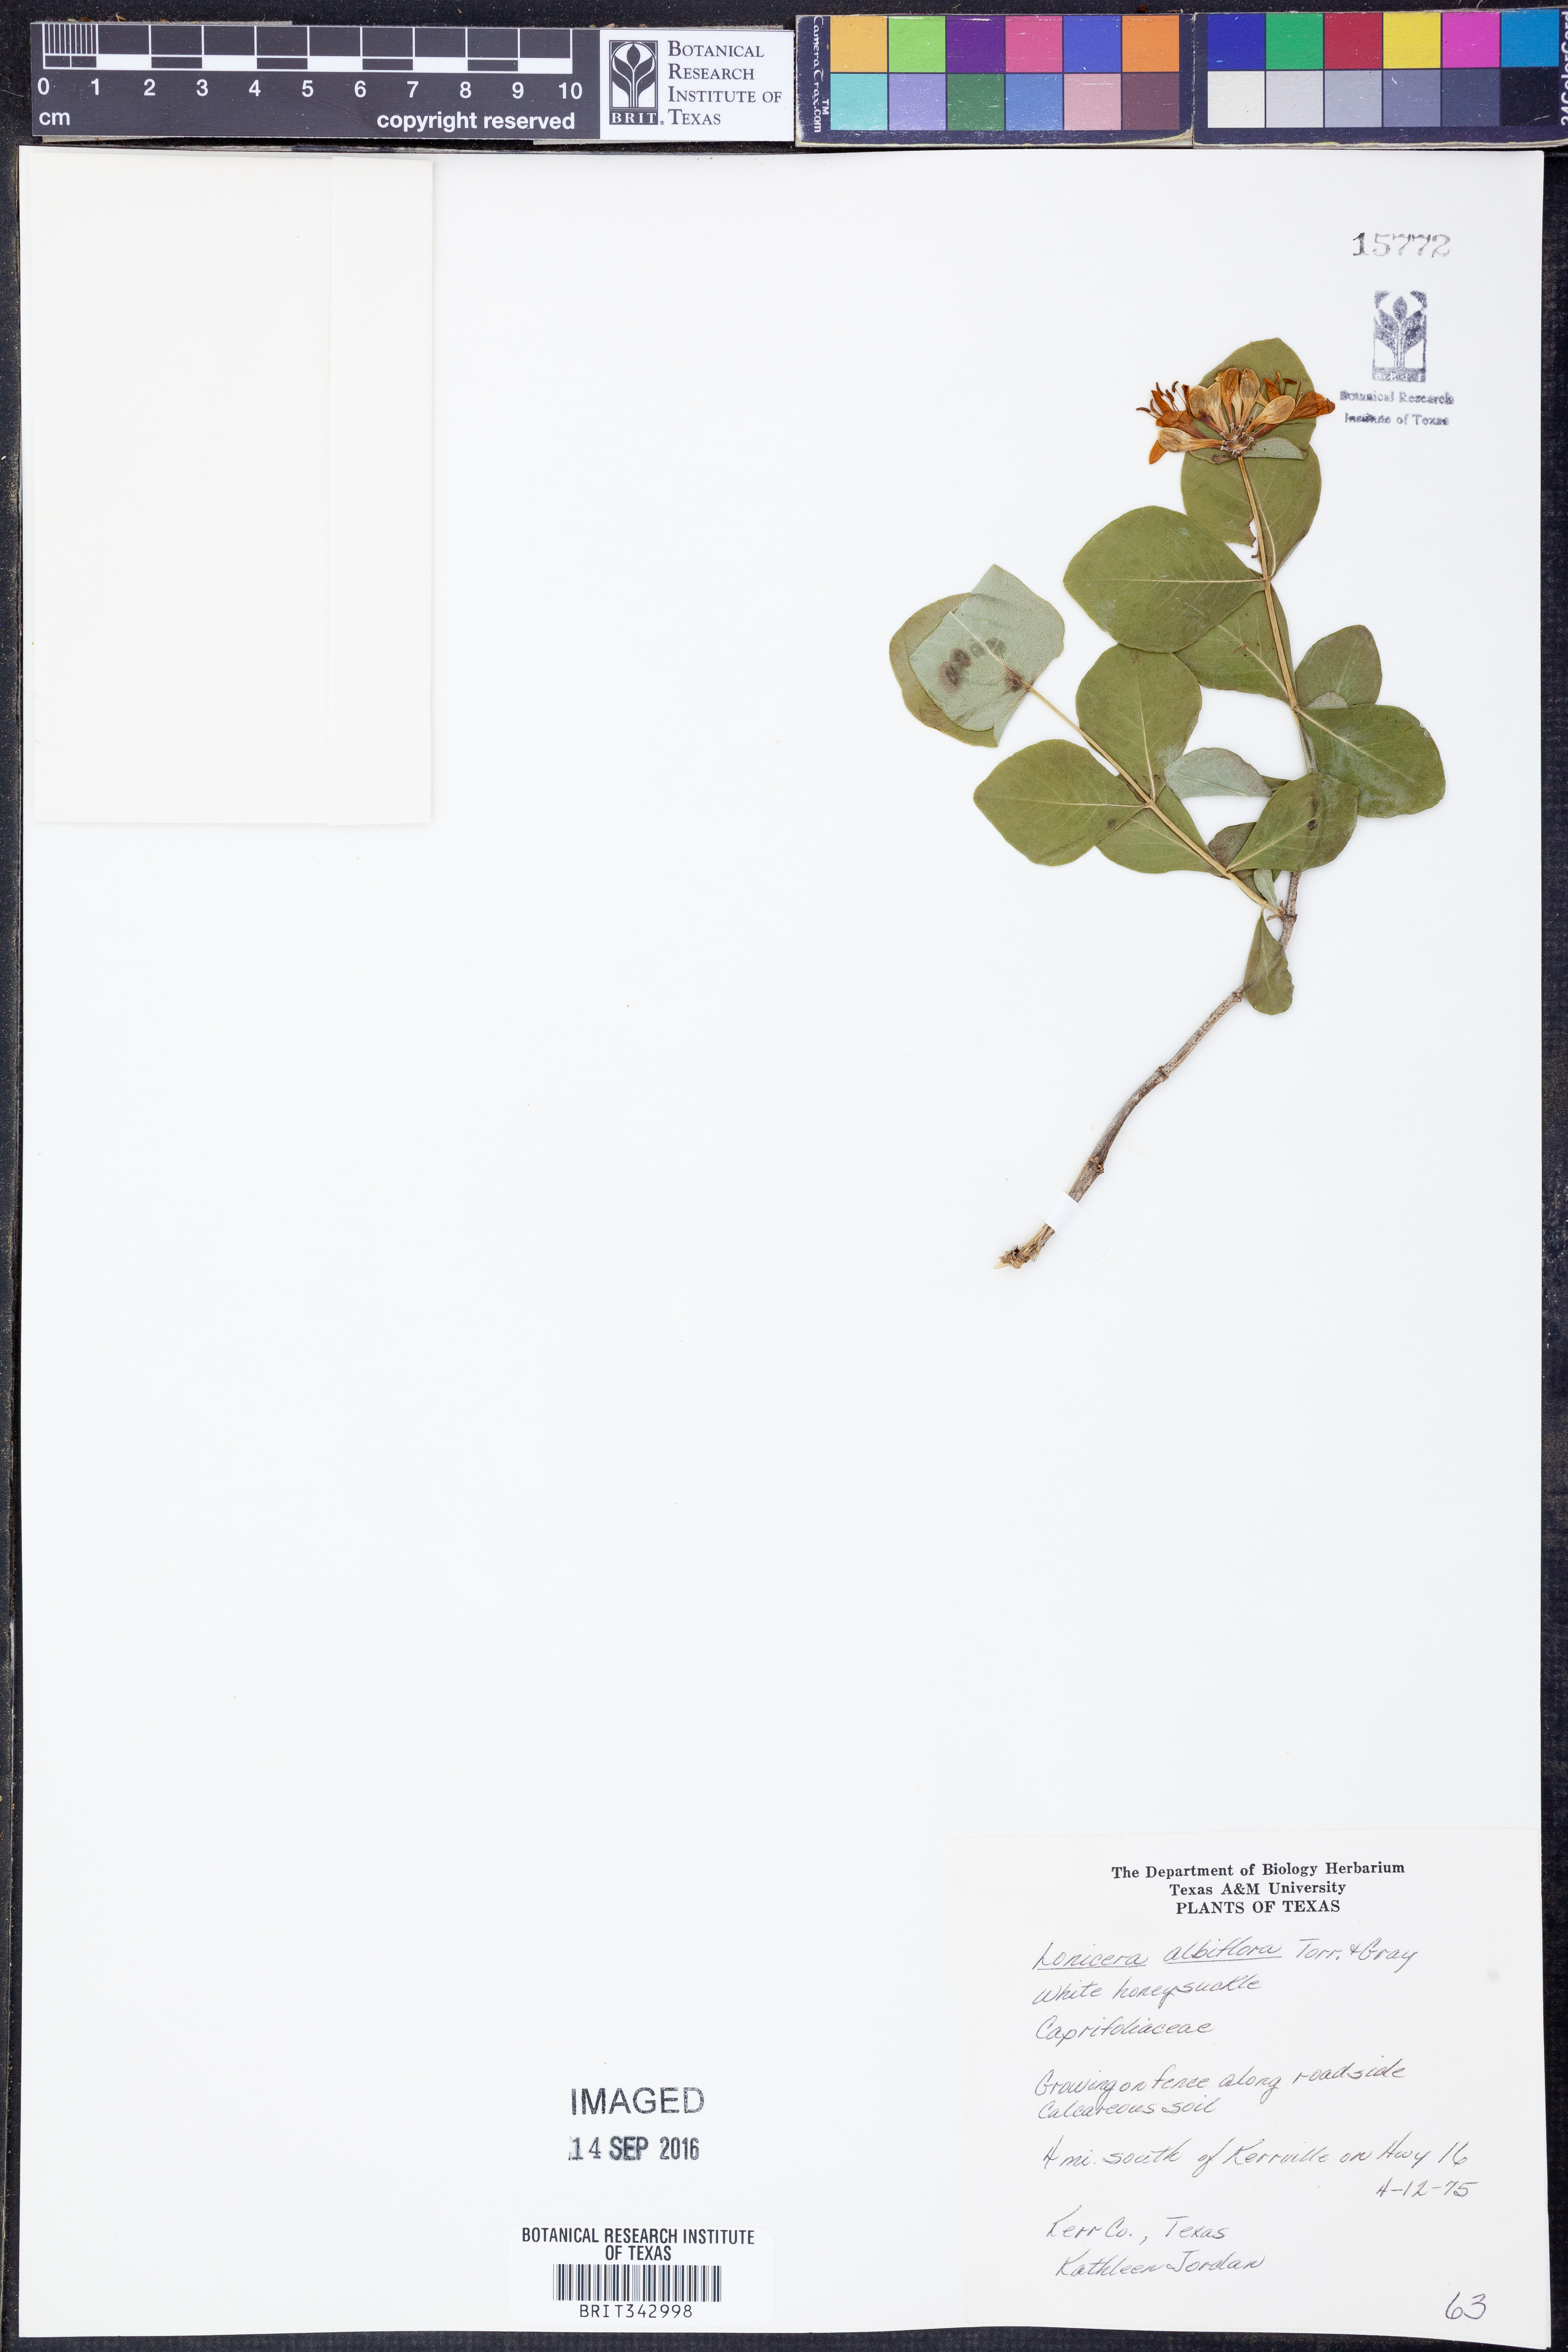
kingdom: Plantae
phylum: Tracheophyta
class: Magnoliopsida
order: Dipsacales
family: Caprifoliaceae
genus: Lonicera
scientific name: Lonicera albiflora
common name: White honeysuckle
